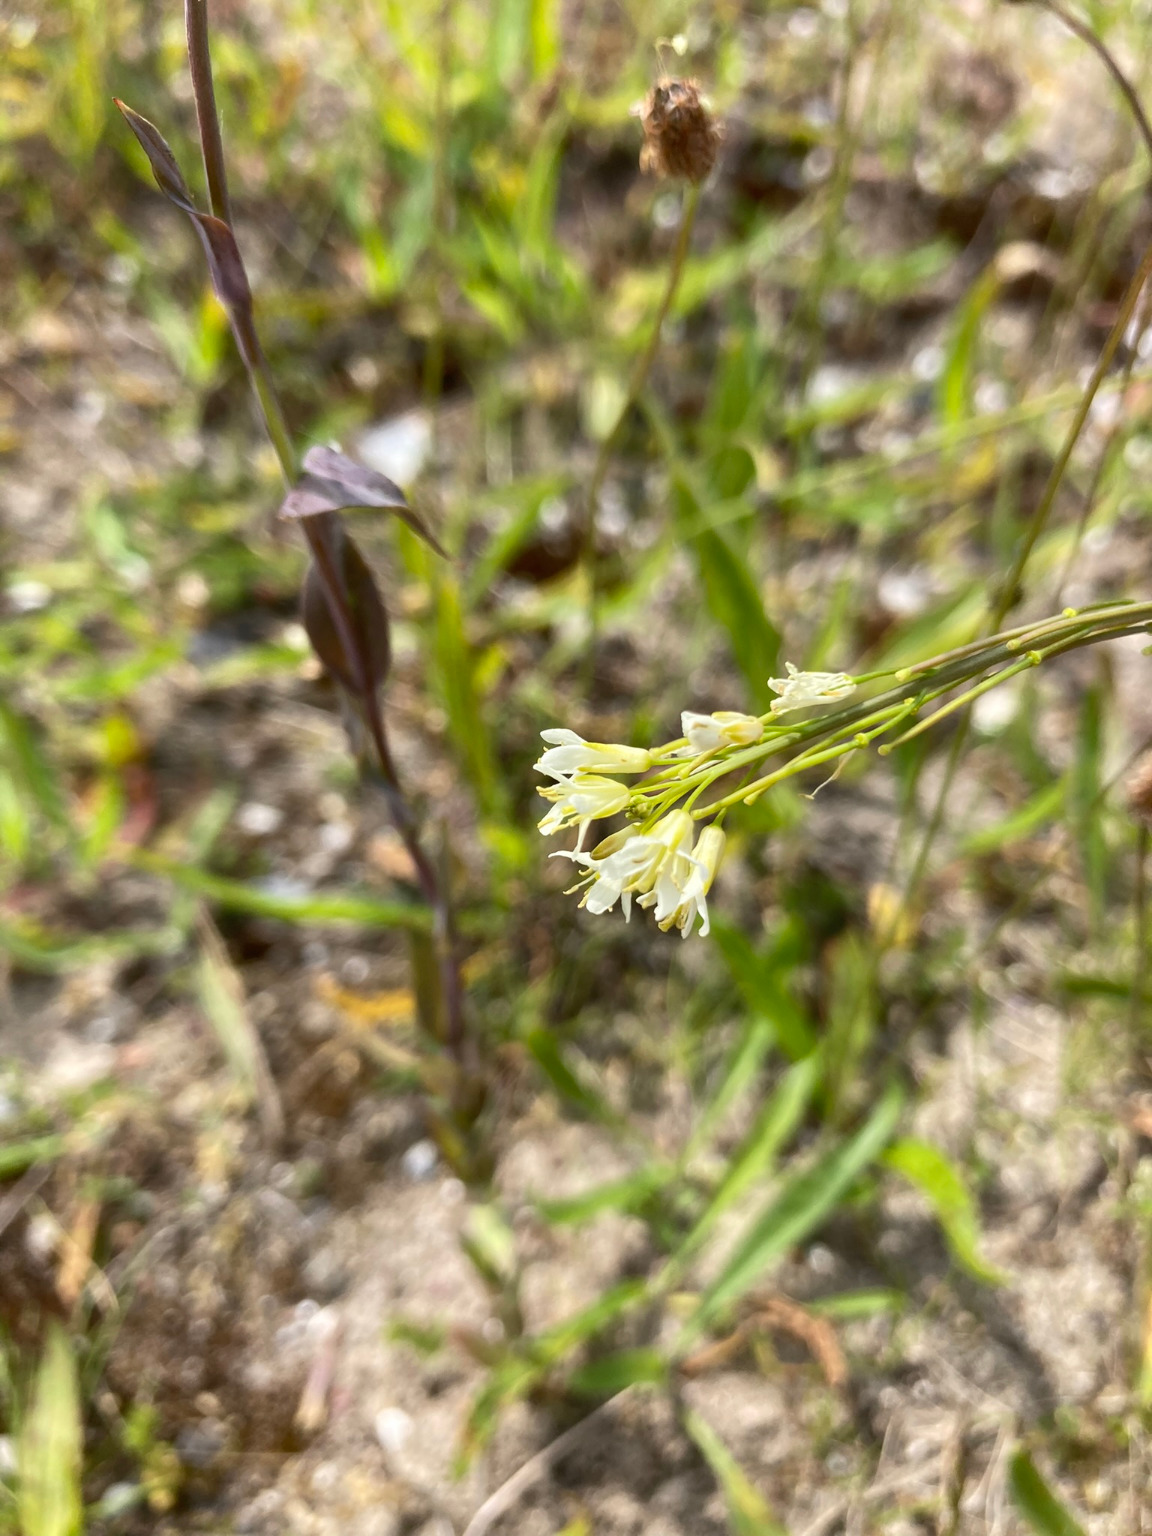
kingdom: Plantae
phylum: Tracheophyta
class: Magnoliopsida
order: Brassicales
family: Brassicaceae
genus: Turritis
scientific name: Turritis glabra
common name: Tårnurt
